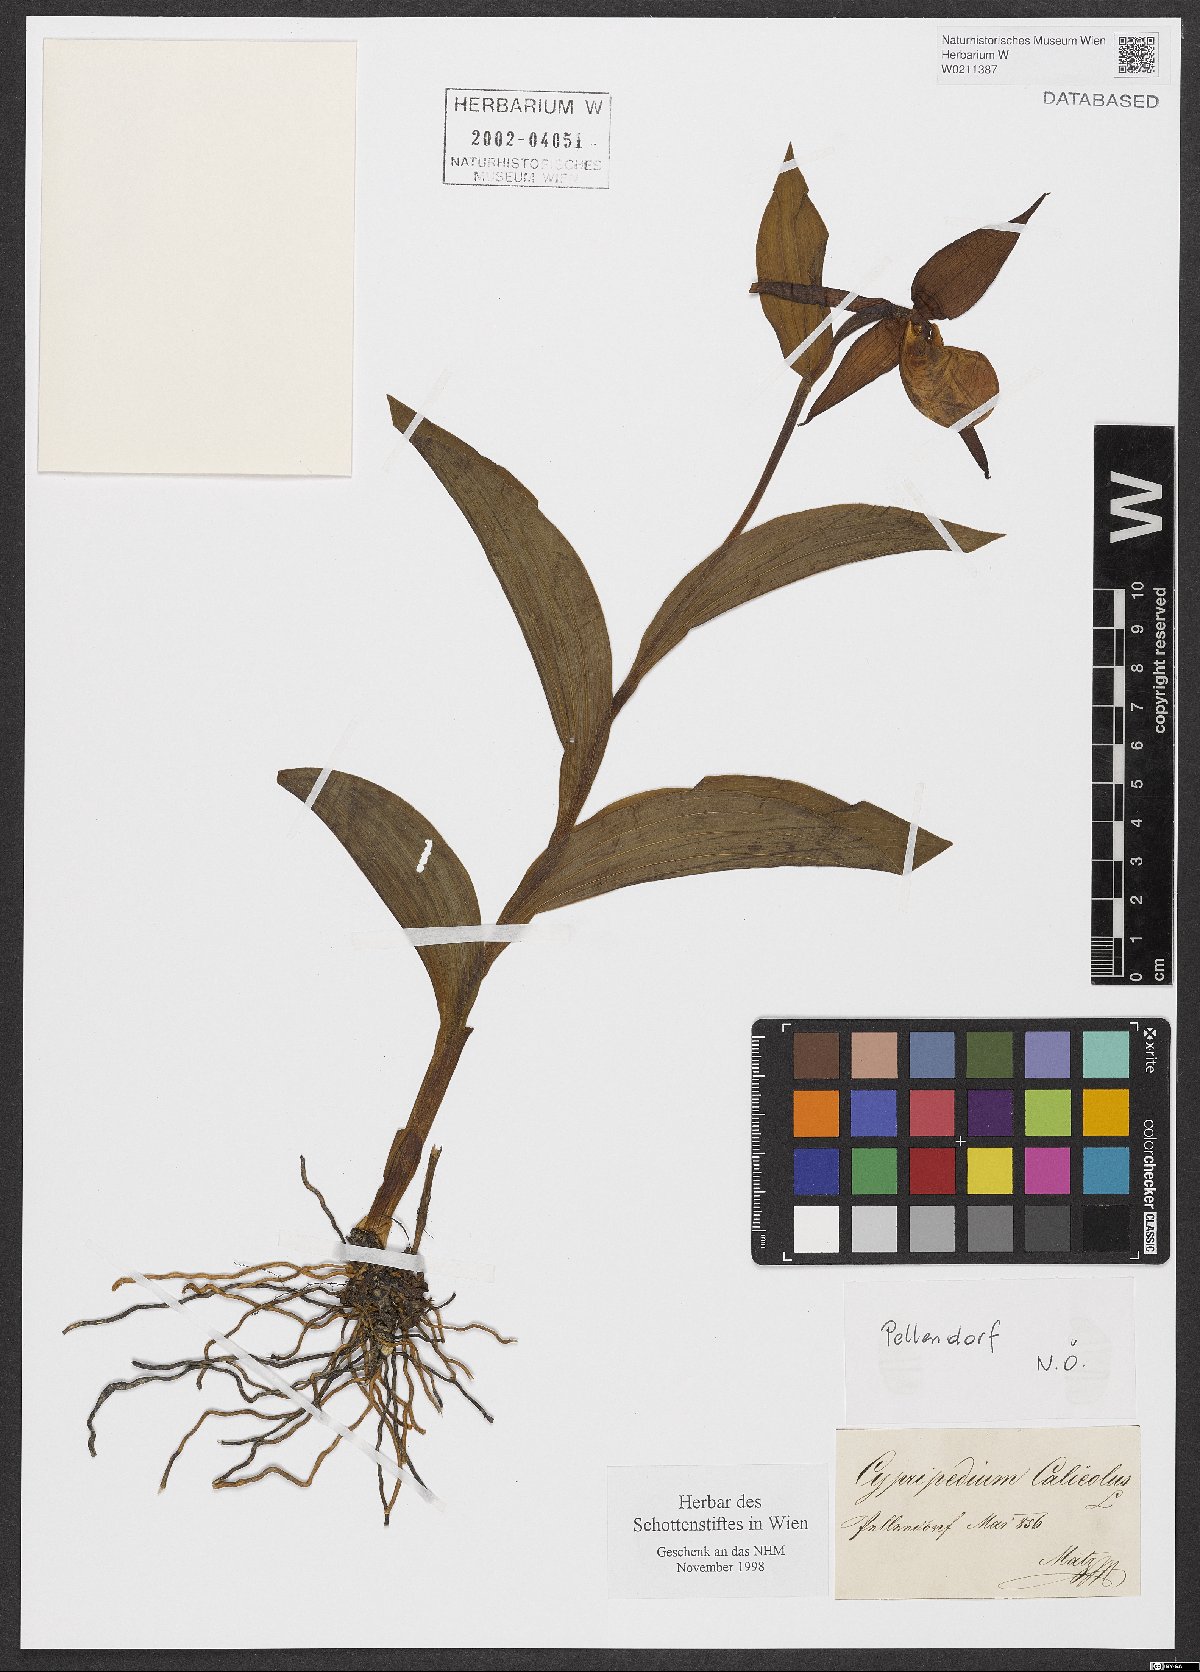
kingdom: Plantae
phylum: Tracheophyta
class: Liliopsida
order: Asparagales
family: Orchidaceae
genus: Cypripedium
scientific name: Cypripedium calceolus
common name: Lady's-slipper
